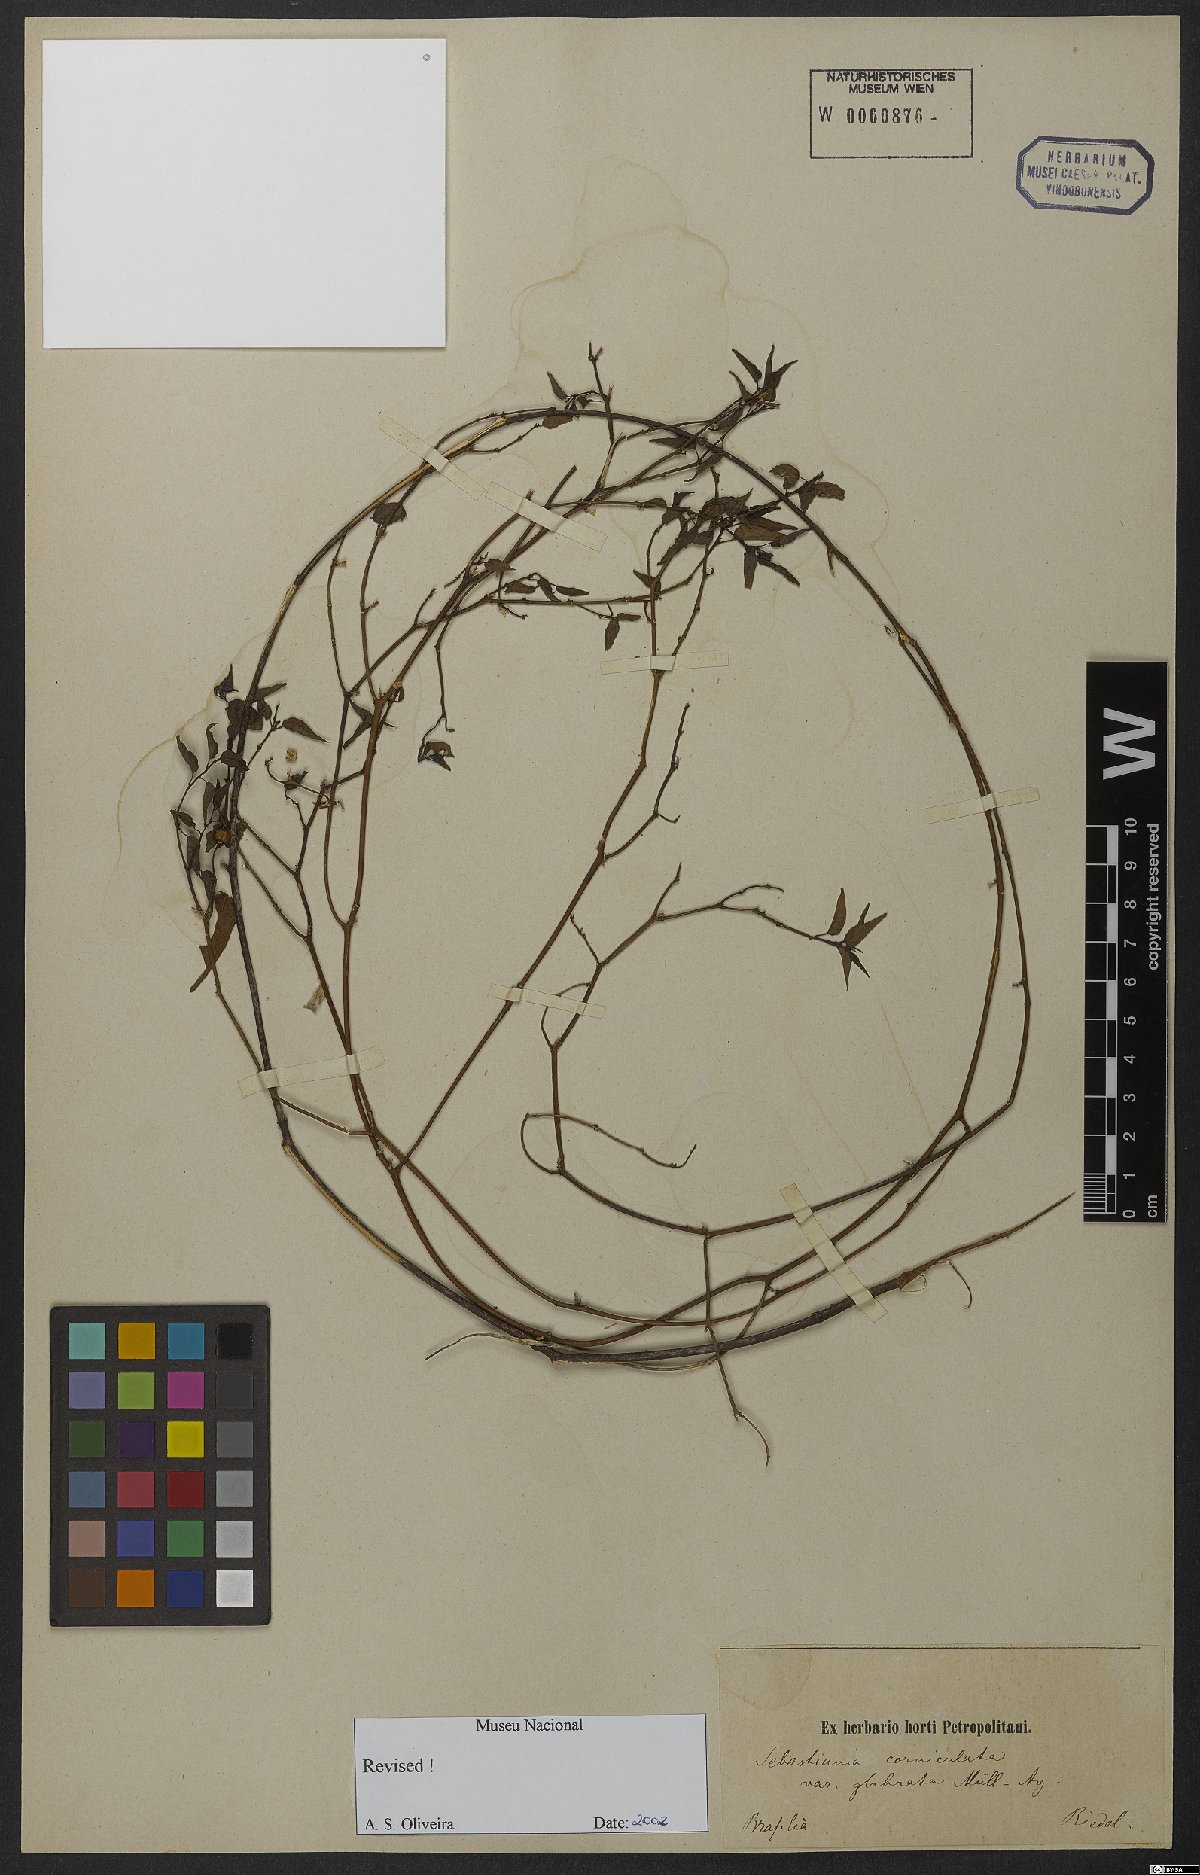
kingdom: Plantae
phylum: Tracheophyta
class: Magnoliopsida
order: Malpighiales
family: Euphorbiaceae
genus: Gymnanthes
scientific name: Gymnanthes glabrata
